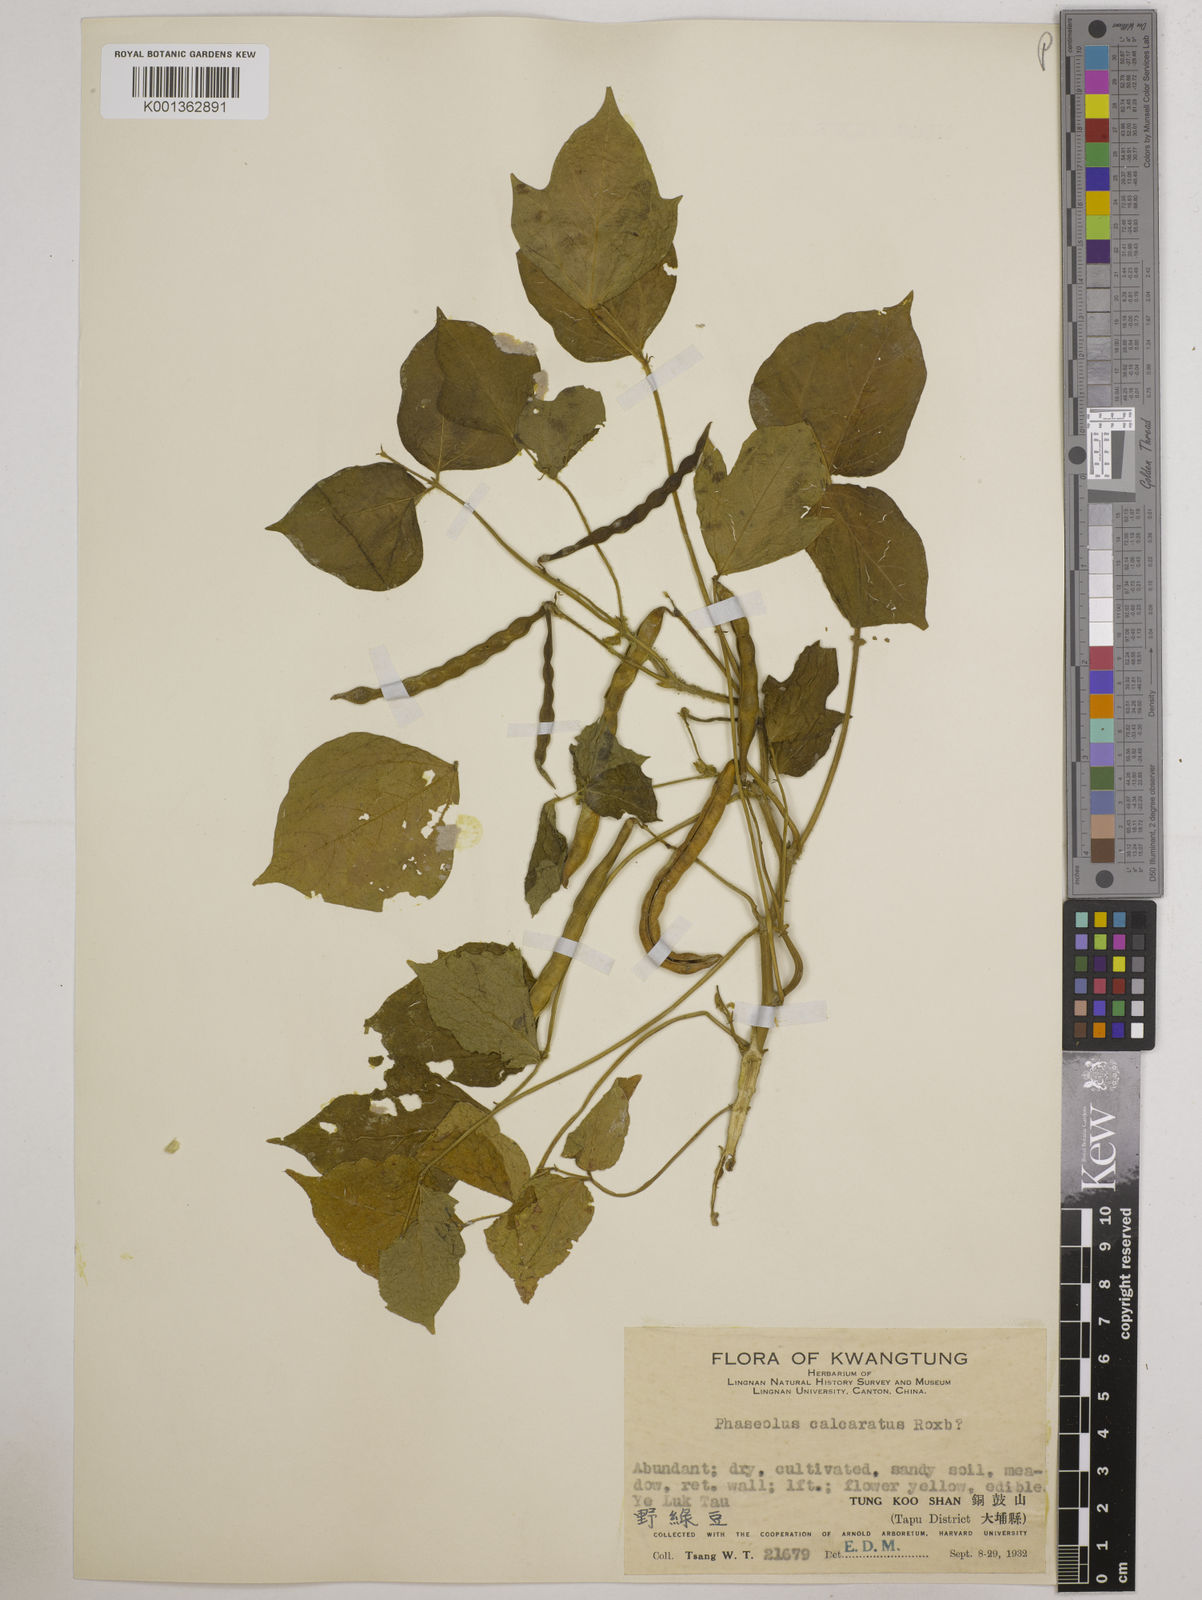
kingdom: Plantae
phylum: Tracheophyta
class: Magnoliopsida
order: Fabales
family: Fabaceae
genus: Vigna
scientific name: Vigna angularis
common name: Adzuki bean
